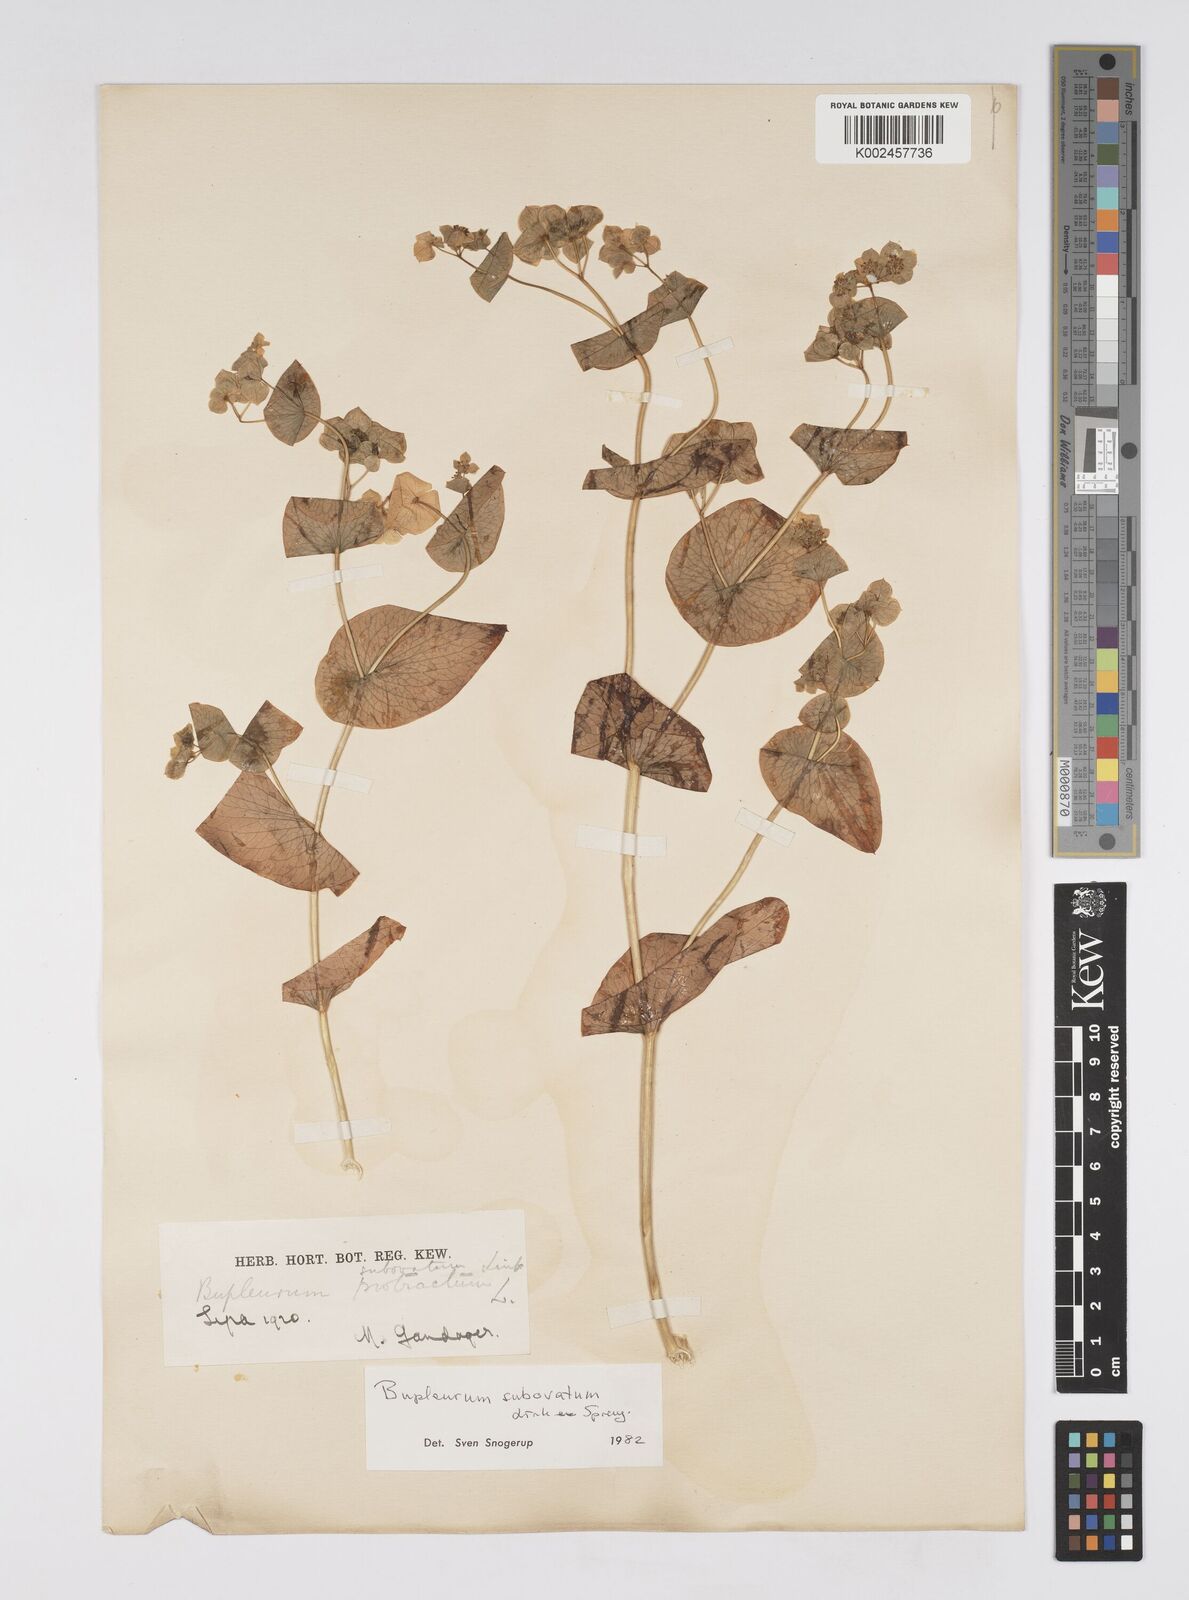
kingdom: Plantae
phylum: Tracheophyta
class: Magnoliopsida
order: Apiales
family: Apiaceae
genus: Bupleurum
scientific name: Bupleurum subovatum
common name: False thorow-wax
